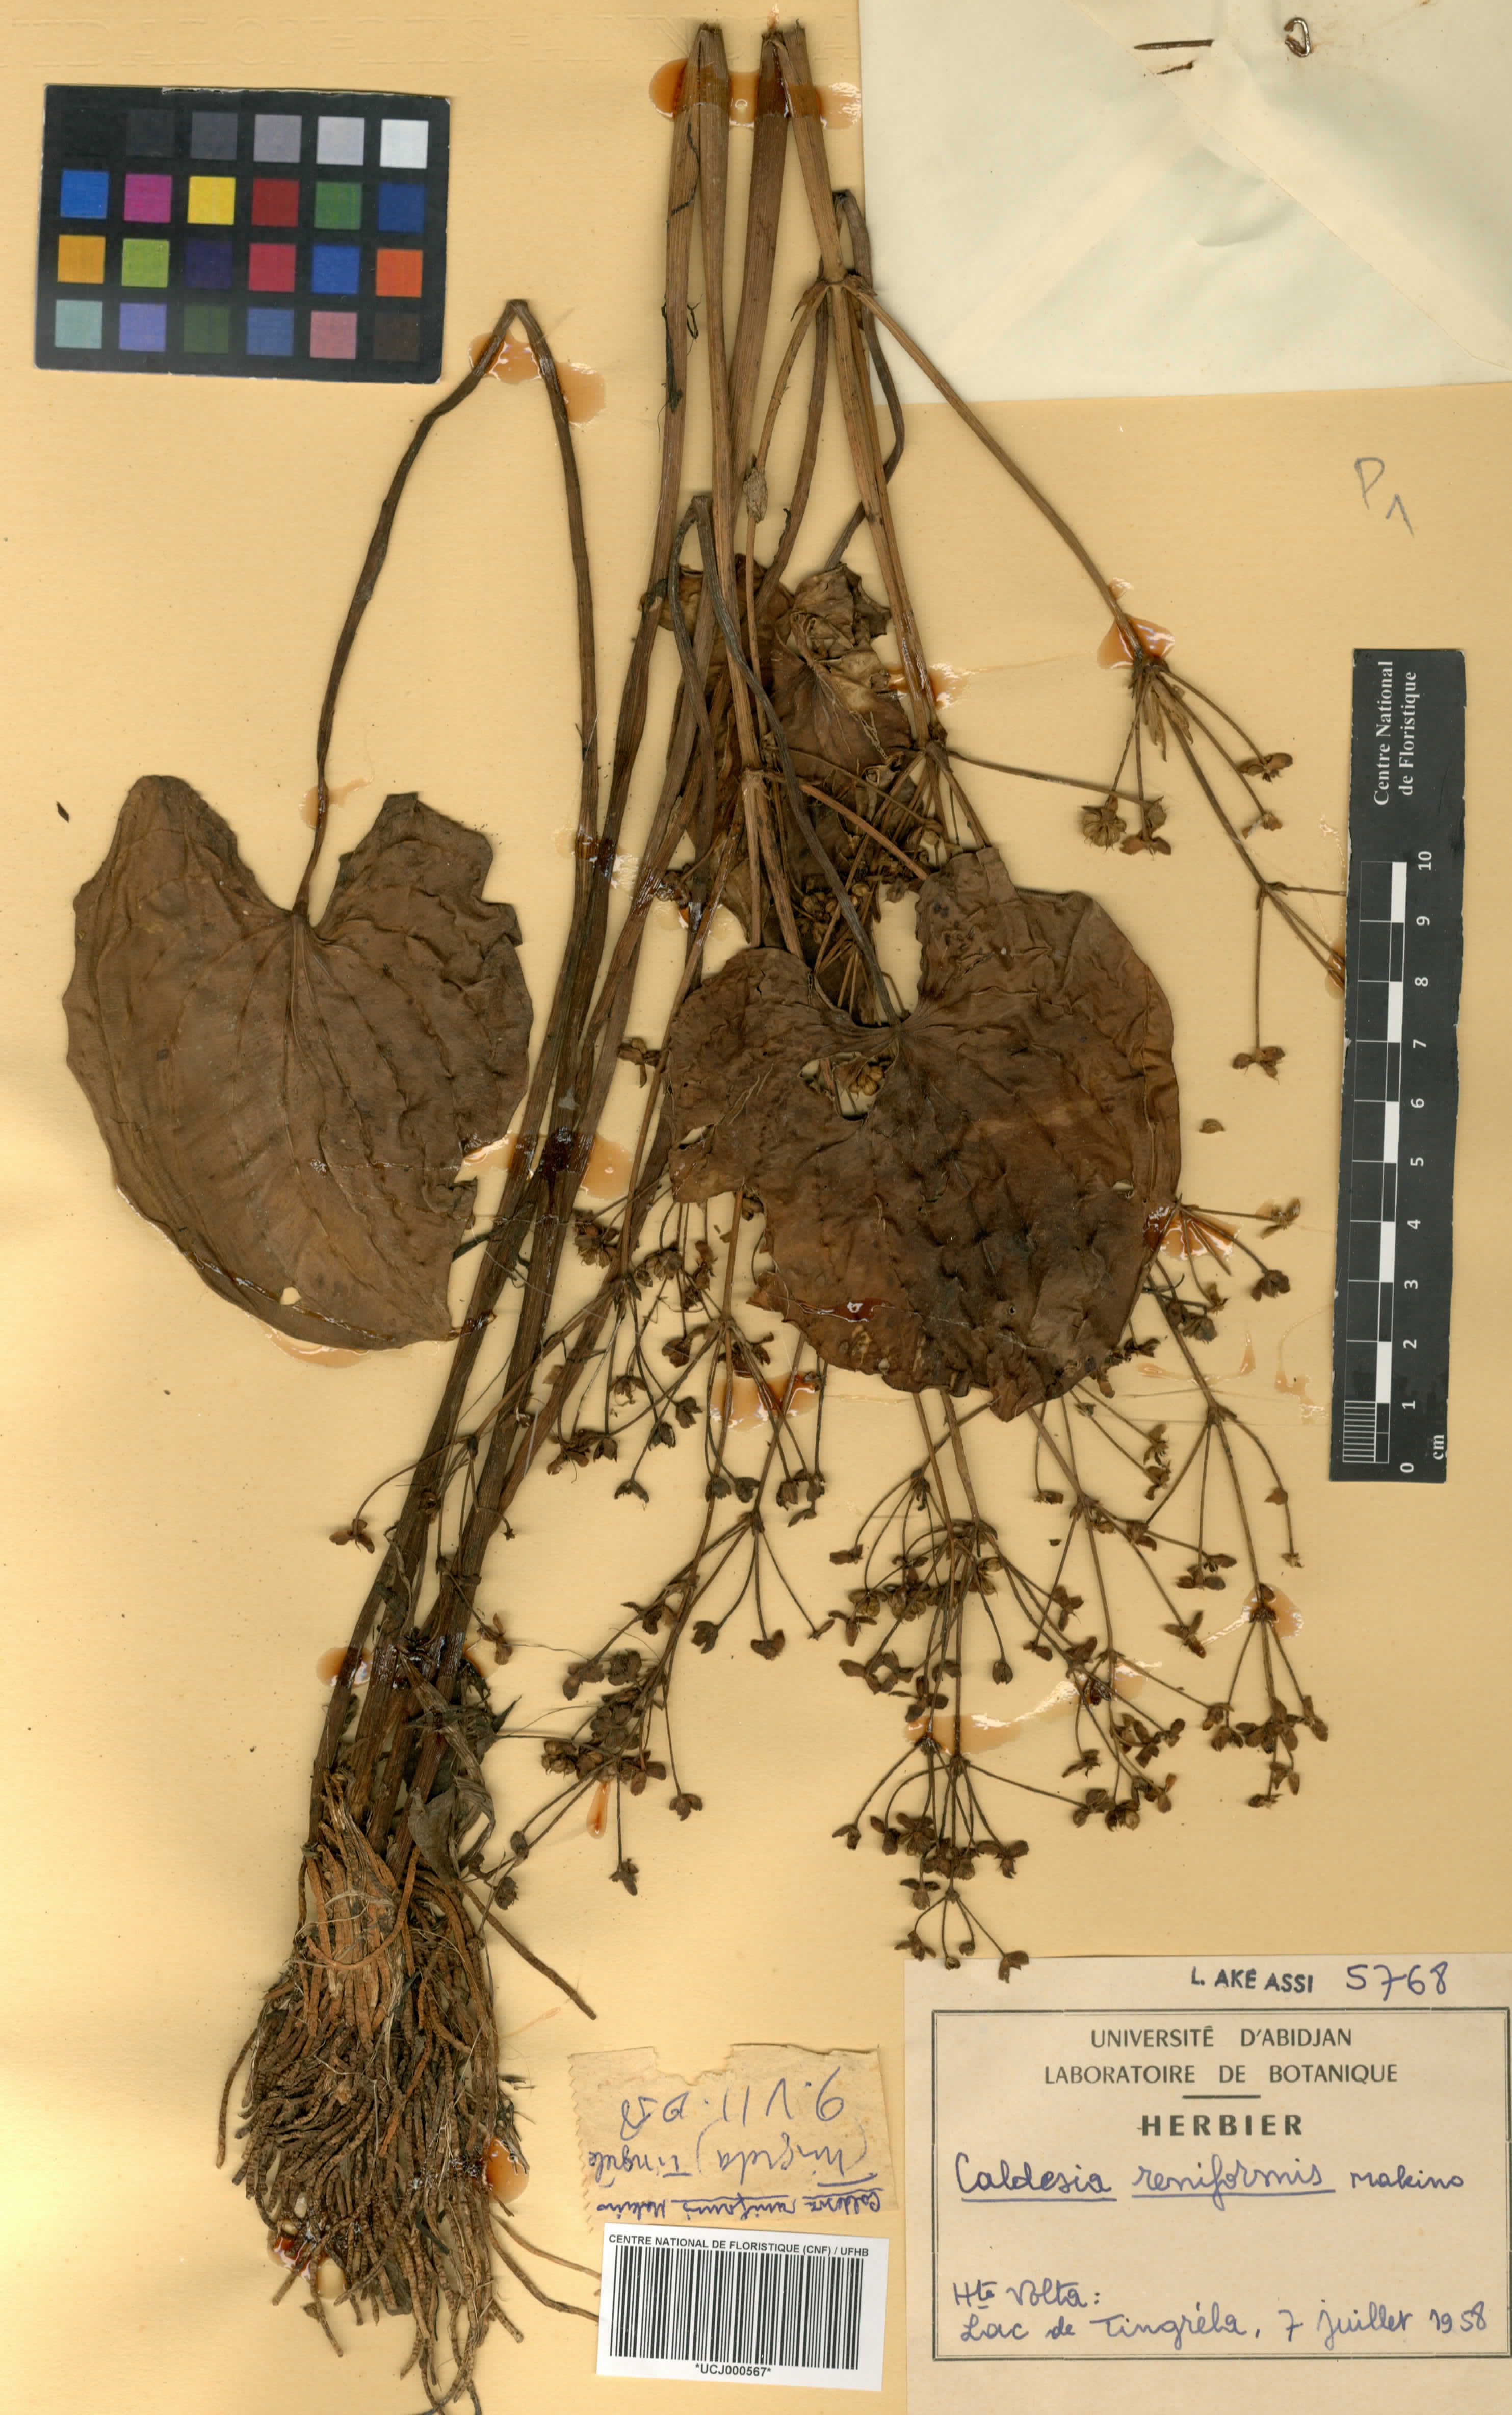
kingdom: Plantae
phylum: Tracheophyta
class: Liliopsida
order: Alismatales
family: Alismataceae
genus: Caldesia
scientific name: Caldesia parnassifolia
